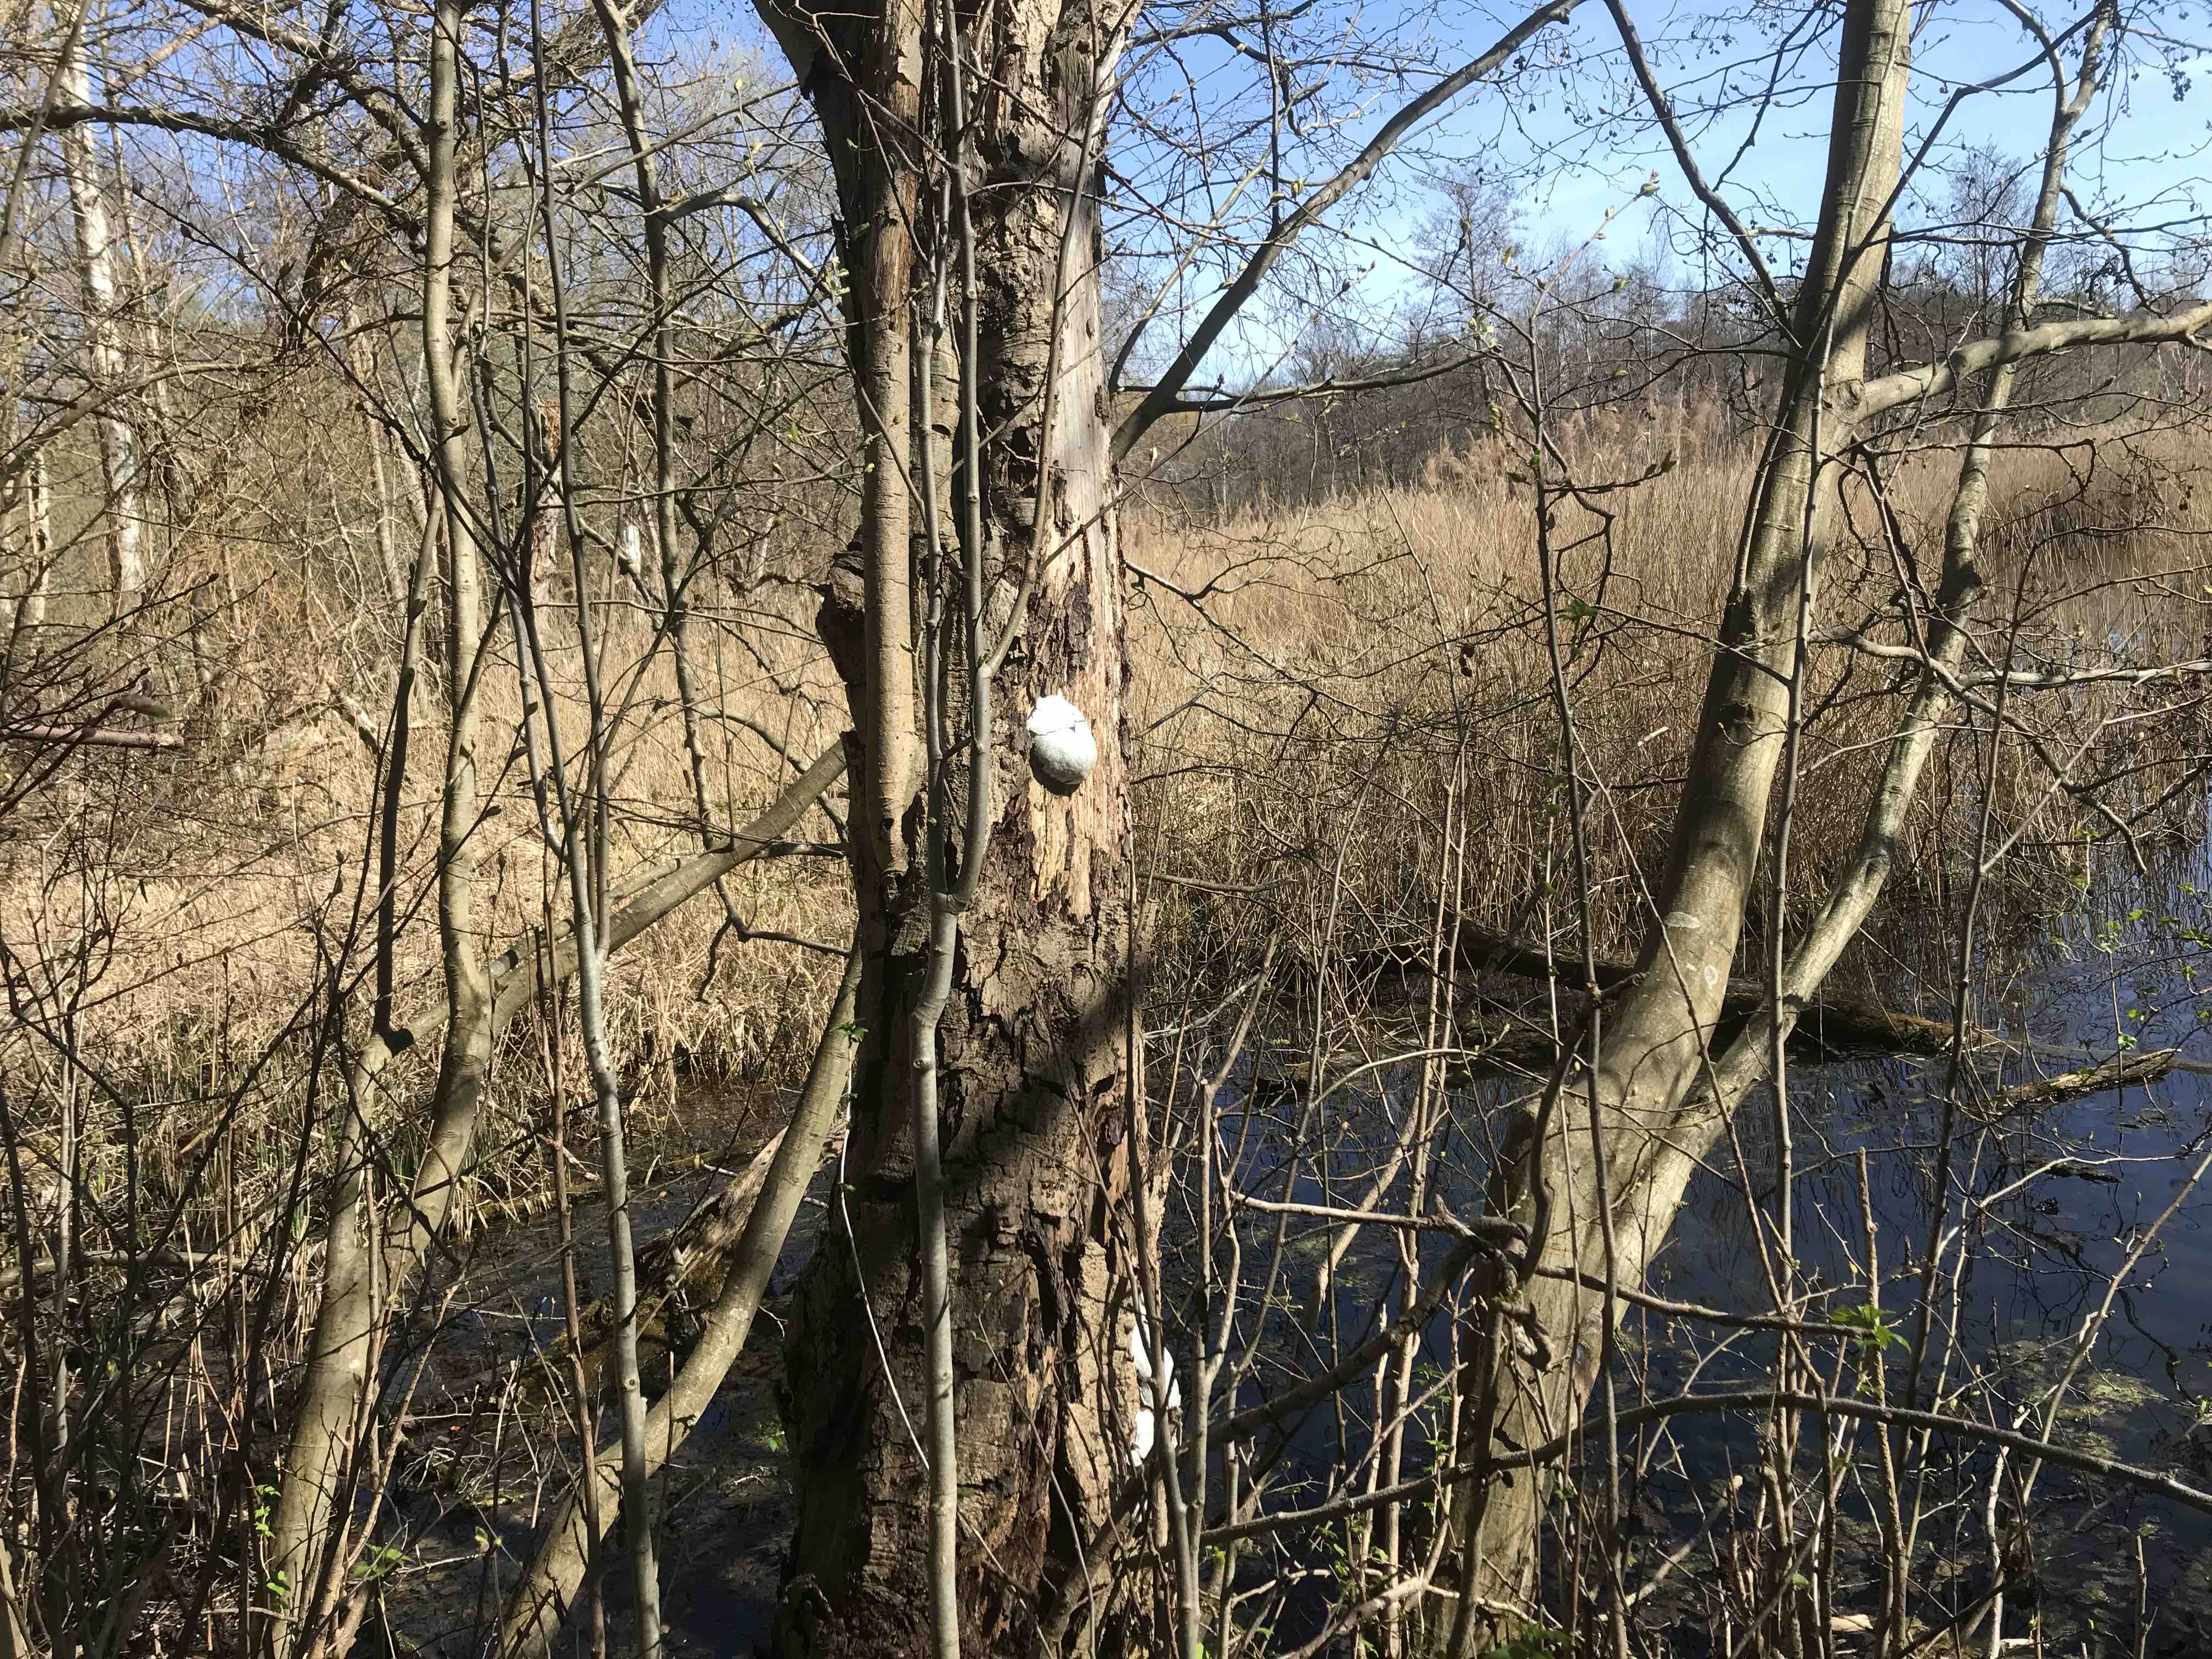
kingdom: Protozoa
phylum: Mycetozoa
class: Myxomycetes
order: Cribrariales
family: Tubiferaceae
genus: Reticularia
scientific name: Reticularia lycoperdon
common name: skinnende støvpude
